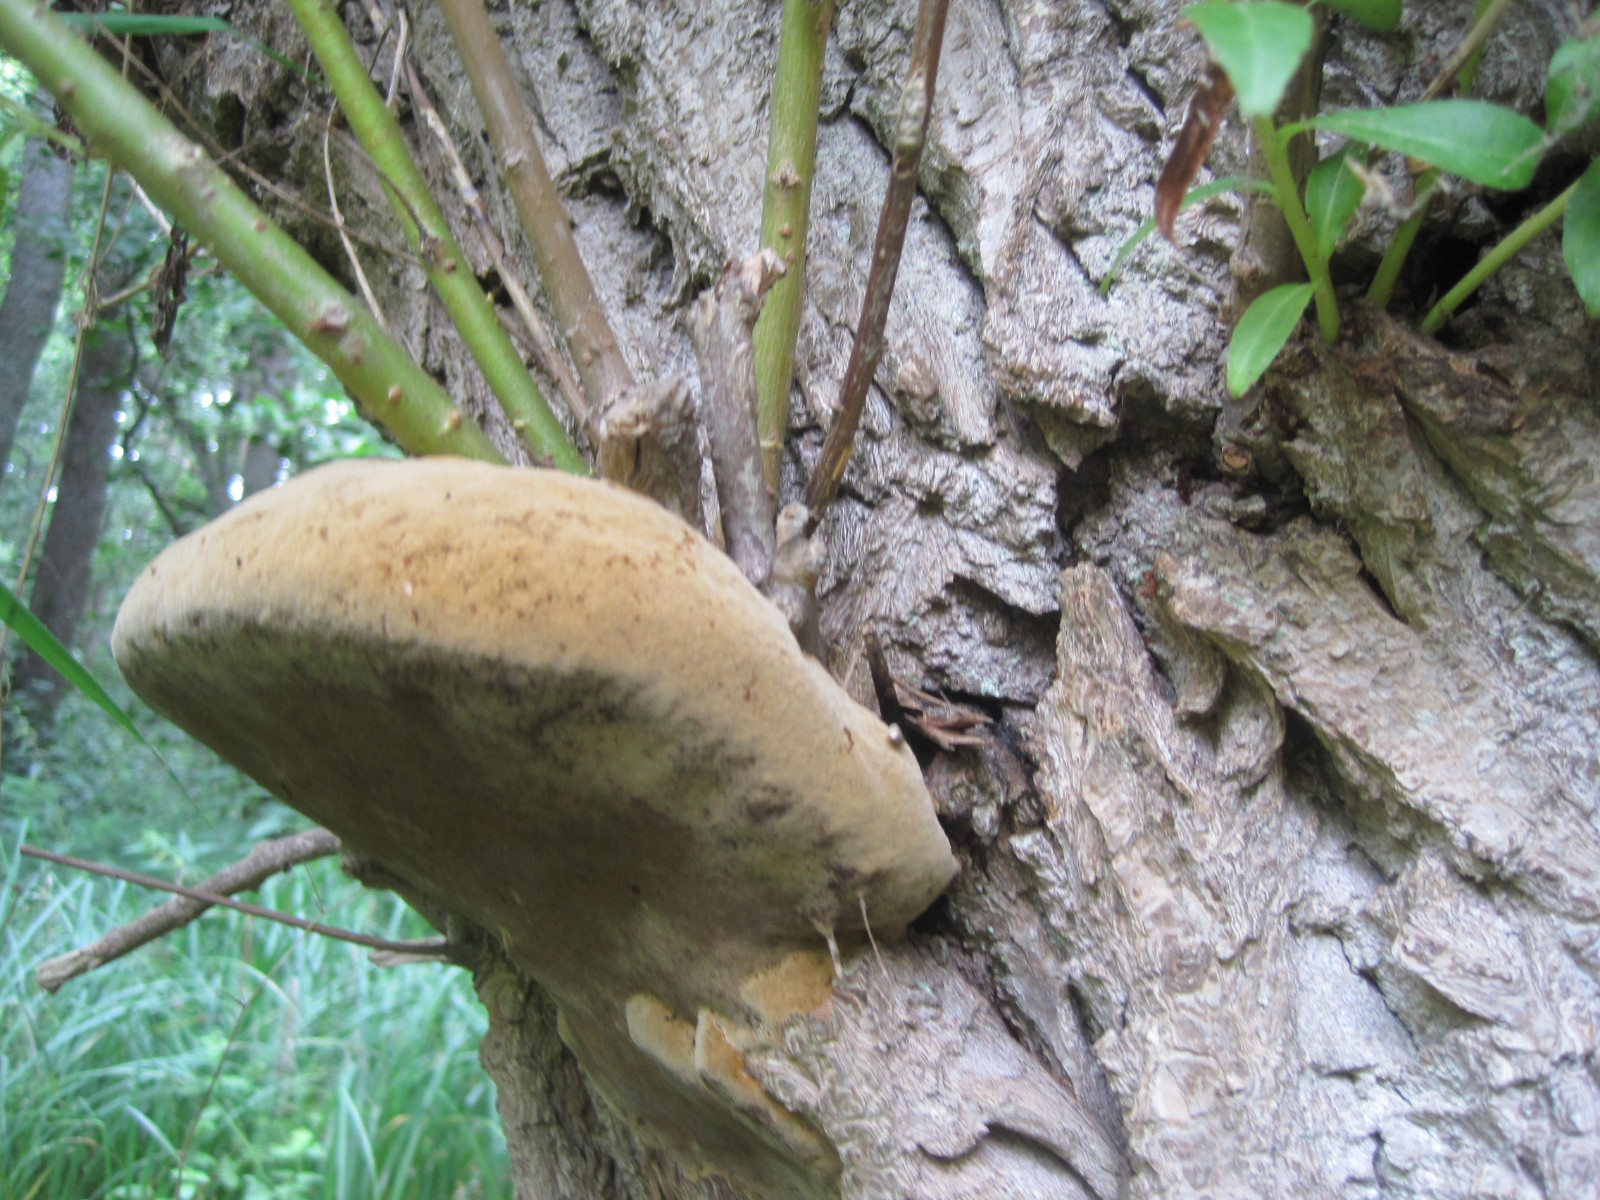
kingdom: Fungi
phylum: Basidiomycota
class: Agaricomycetes
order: Hymenochaetales
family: Hymenochaetaceae
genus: Phellinus
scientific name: Phellinus igniarius
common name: almindelig ildporesvamp
